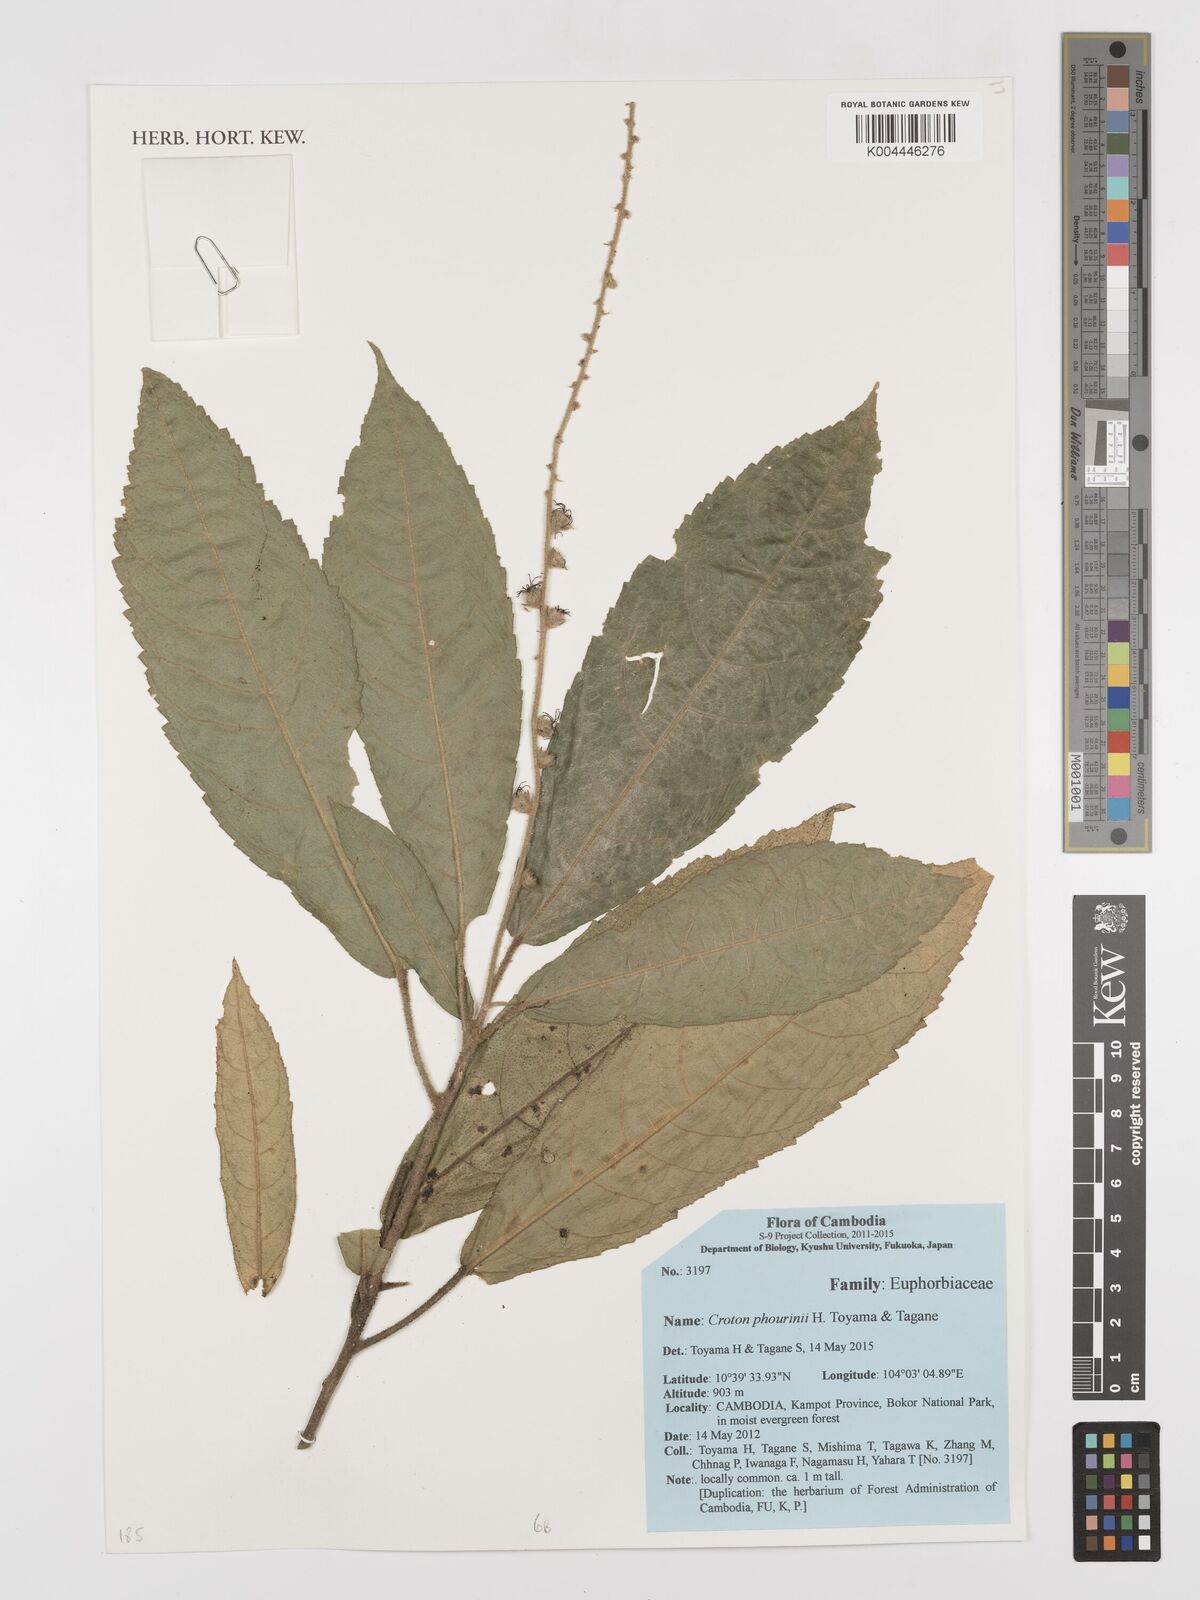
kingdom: Plantae
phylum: Tracheophyta
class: Magnoliopsida
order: Malpighiales
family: Euphorbiaceae
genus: Croton
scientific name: Croton phourinii
